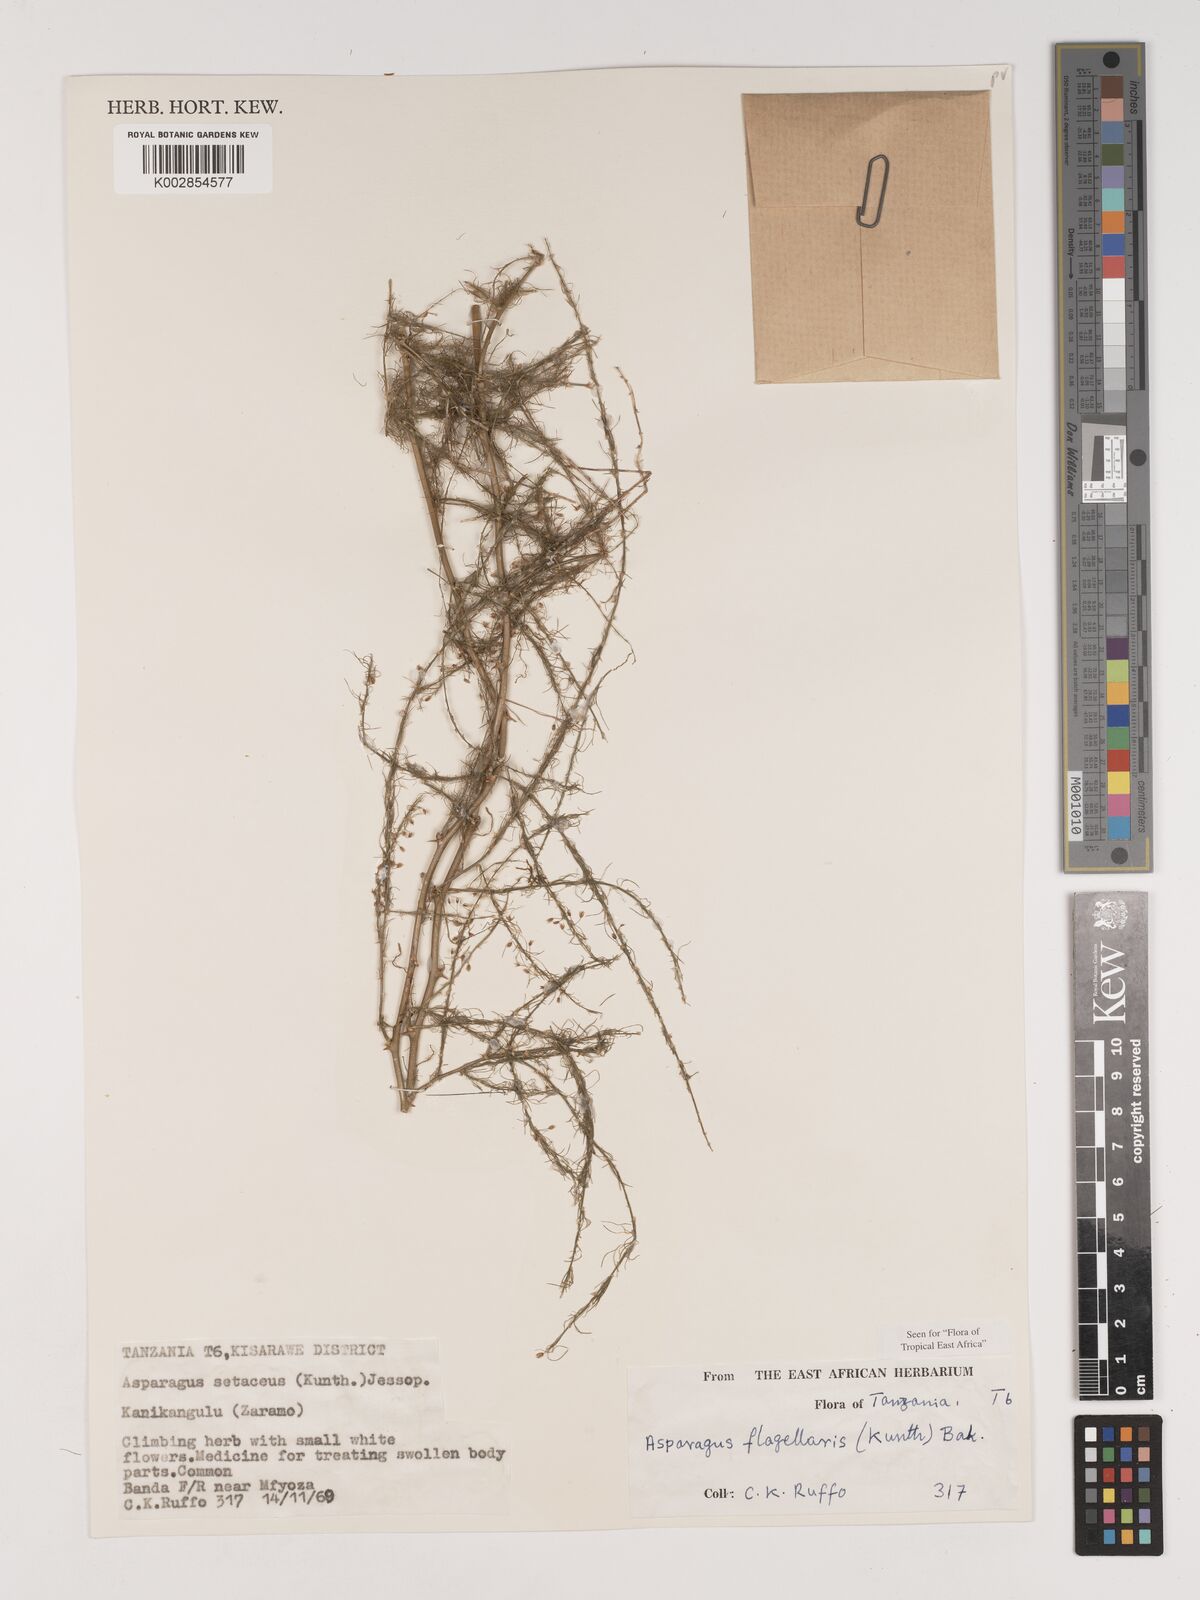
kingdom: Plantae
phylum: Tracheophyta
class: Liliopsida
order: Asparagales
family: Asparagaceae
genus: Asparagus
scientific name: Asparagus flagellaris
